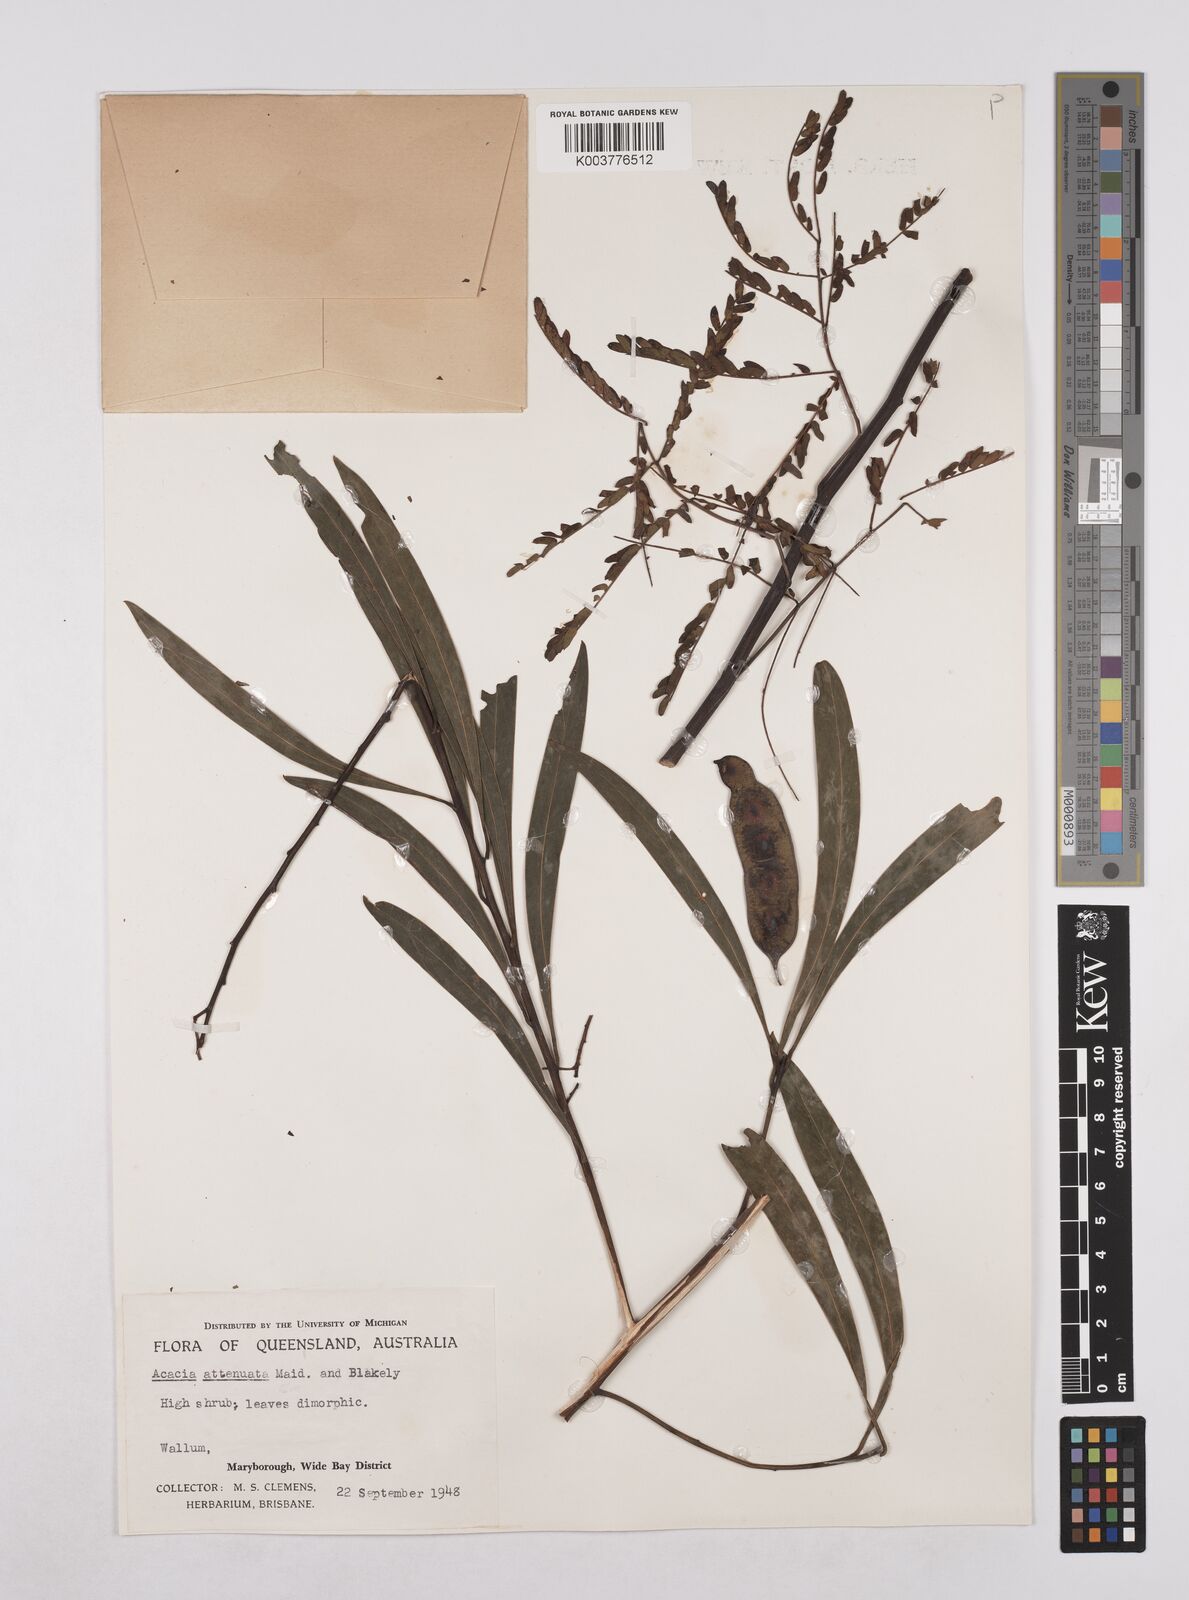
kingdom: Plantae
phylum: Tracheophyta
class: Magnoliopsida
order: Fabales
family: Fabaceae
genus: Acacia
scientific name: Acacia attenuata
